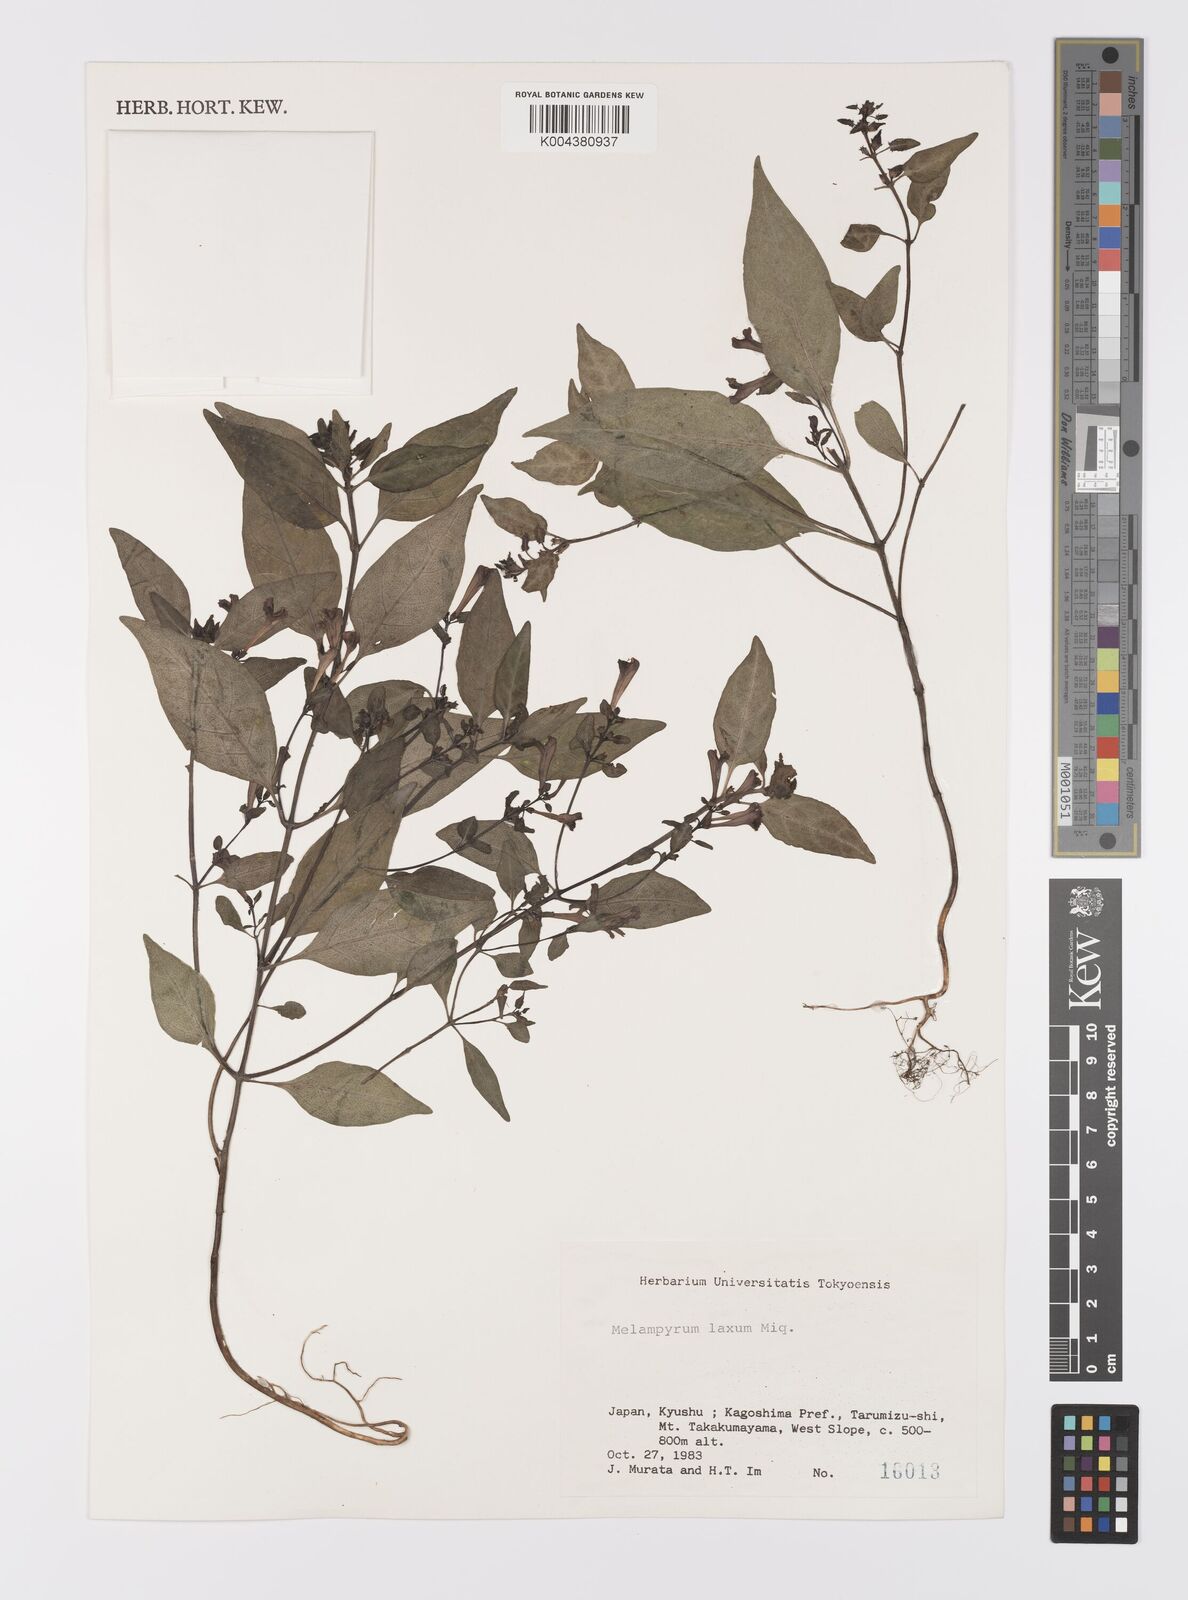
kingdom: Plantae
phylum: Tracheophyta
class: Magnoliopsida
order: Lamiales
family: Orobanchaceae
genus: Melampyrum
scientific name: Melampyrum laxum
